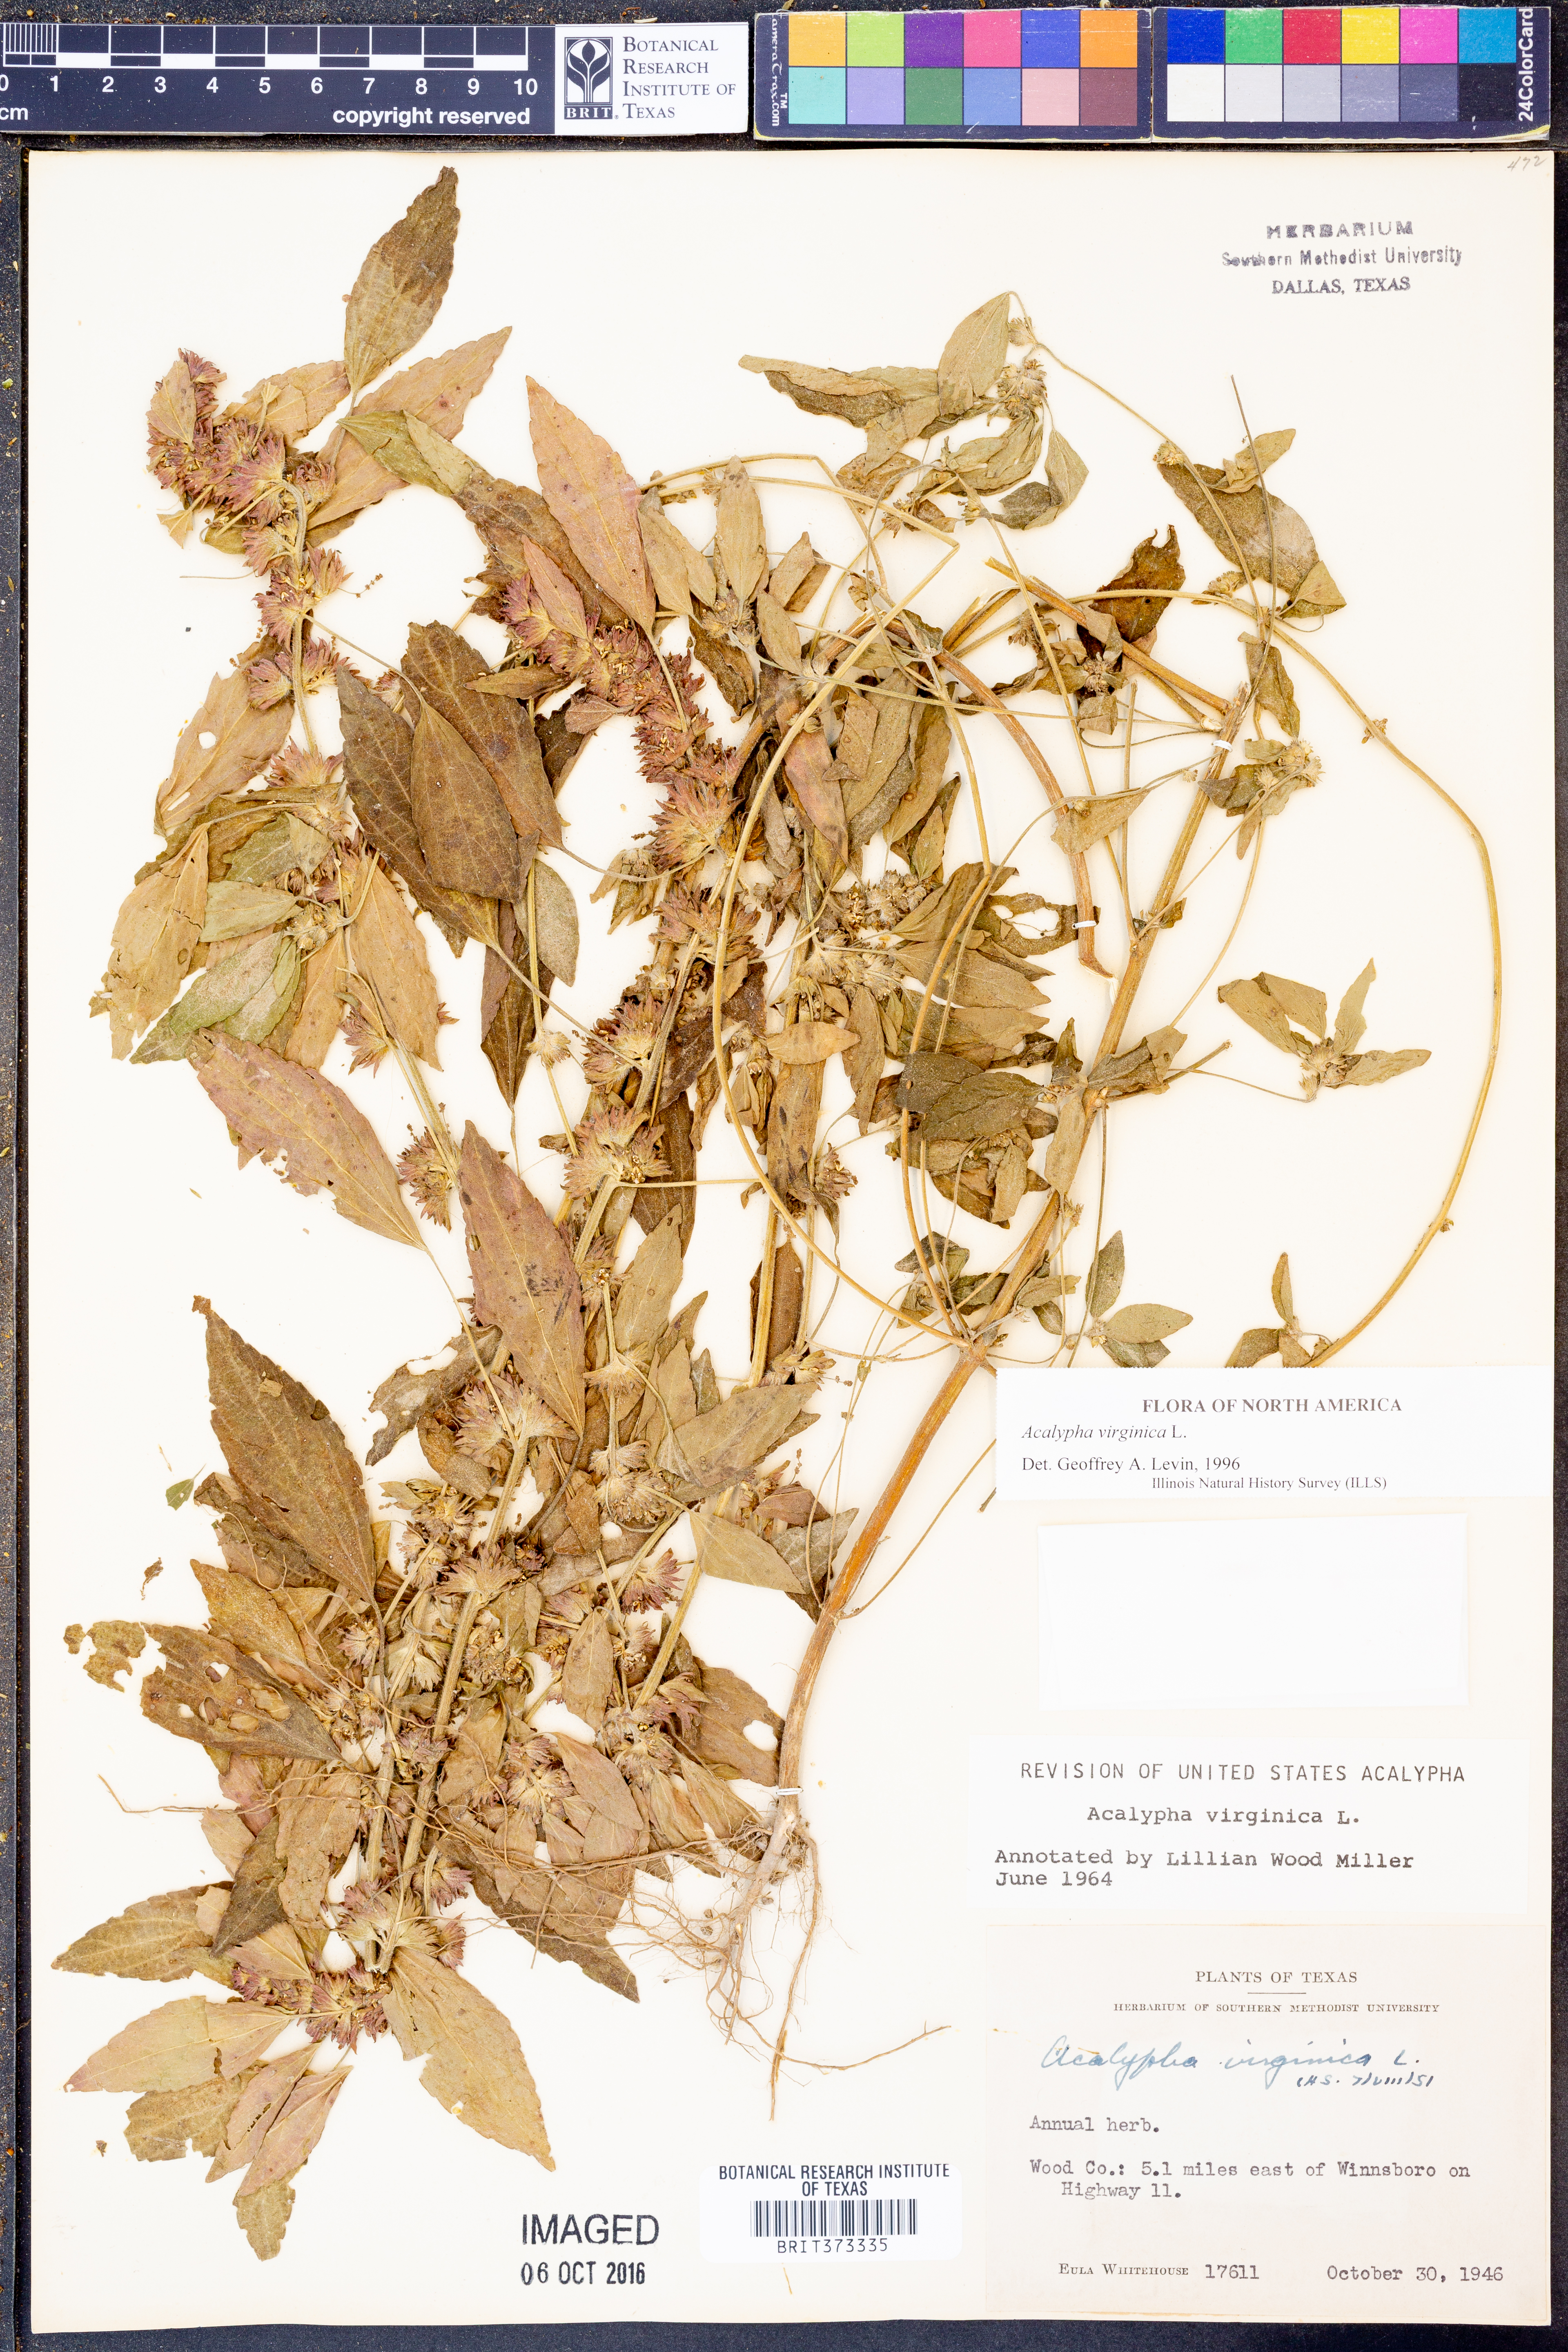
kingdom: Plantae
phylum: Tracheophyta
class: Magnoliopsida
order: Malpighiales
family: Euphorbiaceae
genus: Acalypha
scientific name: Acalypha virginica
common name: Virginia copperleaf
